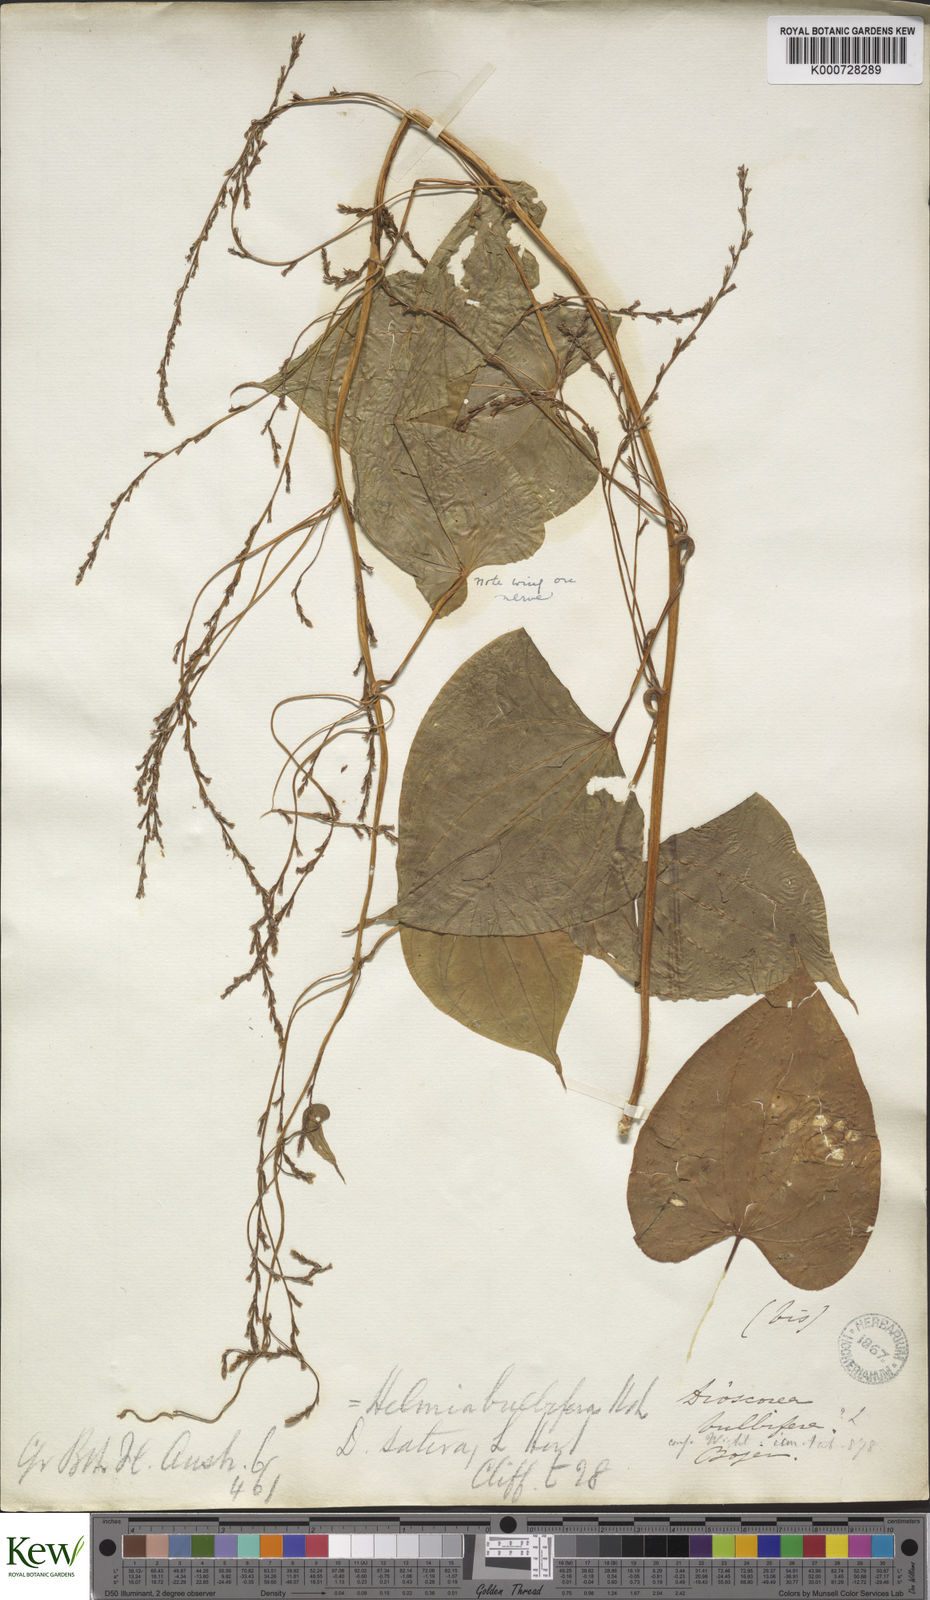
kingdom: Plantae
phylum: Tracheophyta
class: Liliopsida
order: Dioscoreales
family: Dioscoreaceae
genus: Dioscorea
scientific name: Dioscorea bulbifera
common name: Air yam
